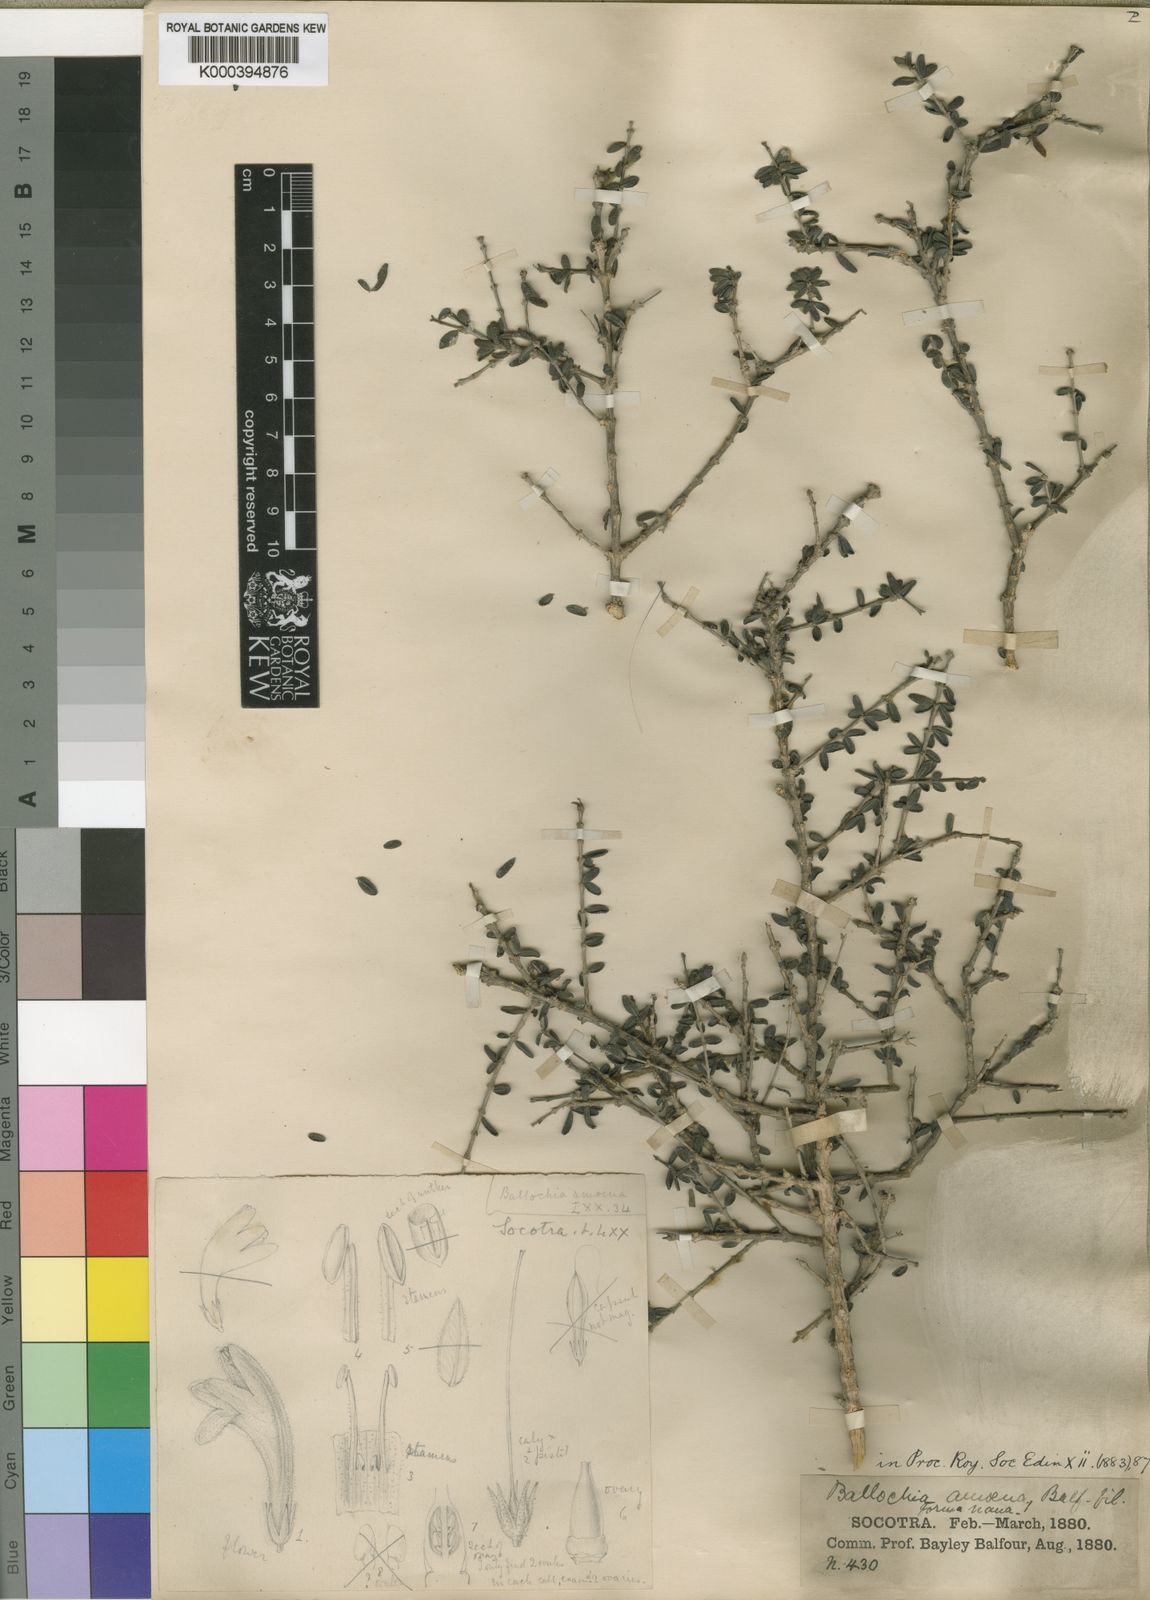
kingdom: Plantae
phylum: Tracheophyta
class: Magnoliopsida
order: Lamiales
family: Acanthaceae
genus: Ballochia
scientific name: Ballochia amoena
